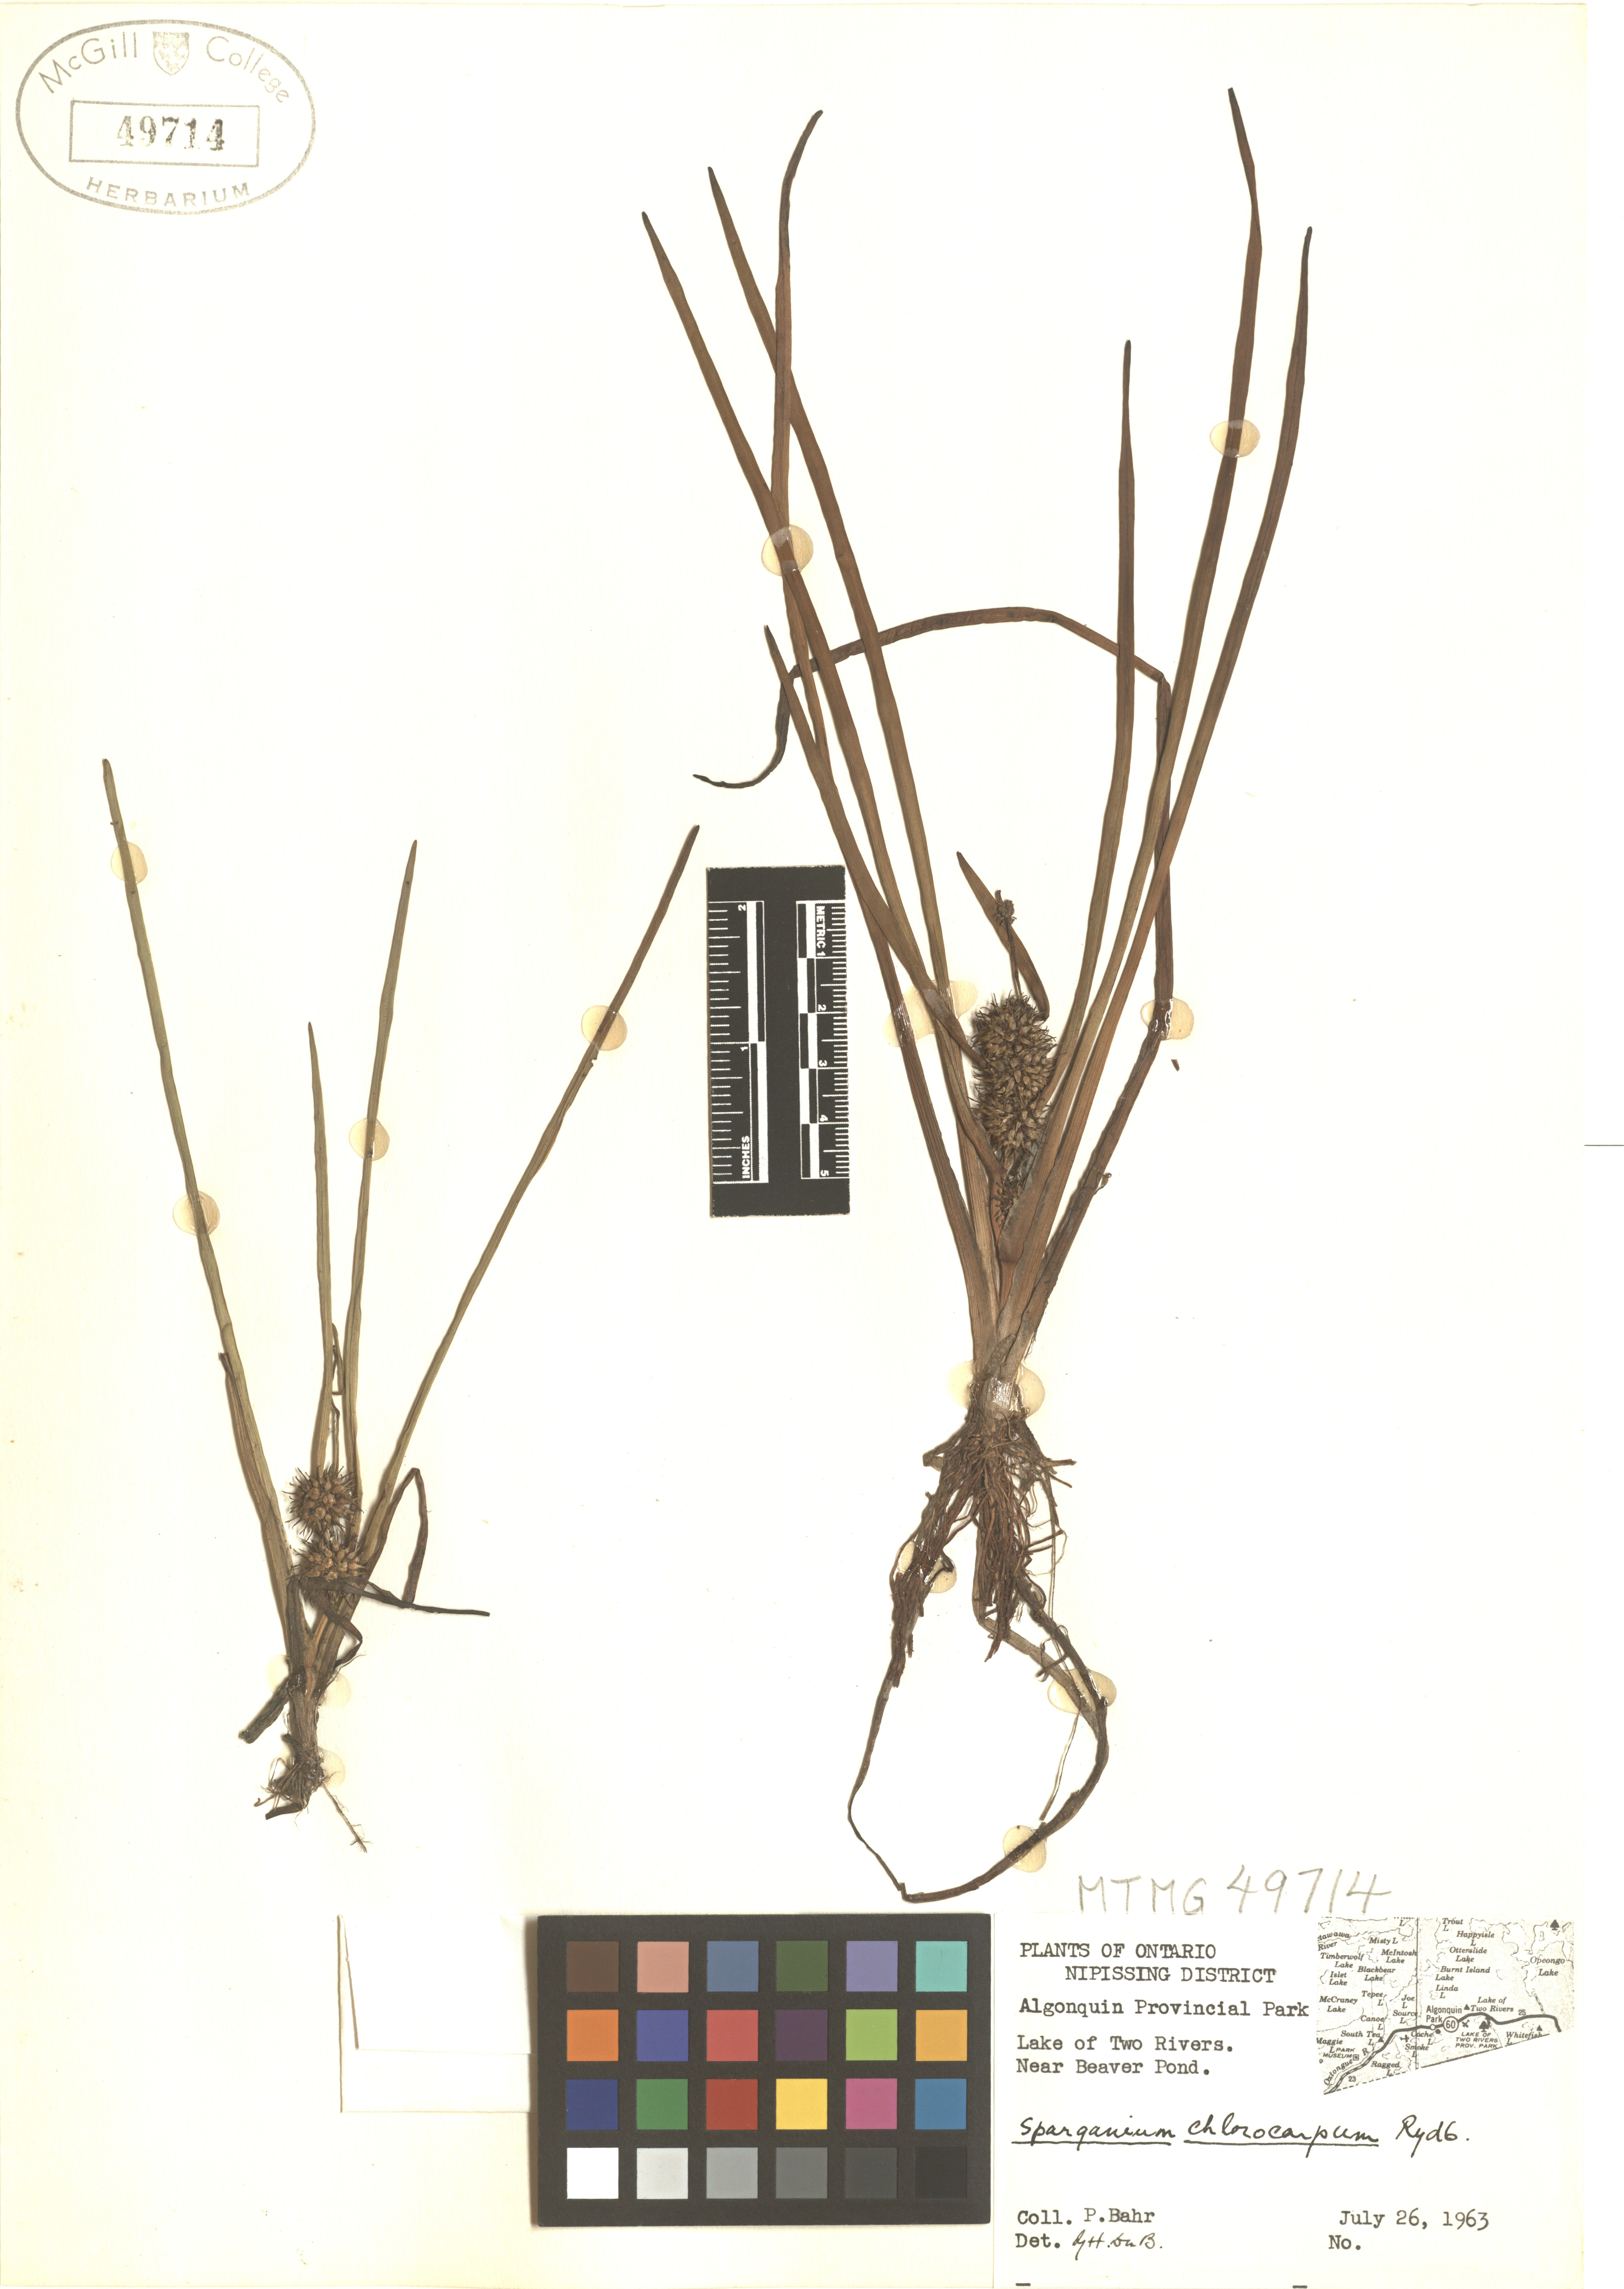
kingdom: Plantae
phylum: Tracheophyta
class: Liliopsida
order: Poales
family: Typhaceae
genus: Sparganium
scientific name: Sparganium emersum
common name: Unbranched bur-reed
